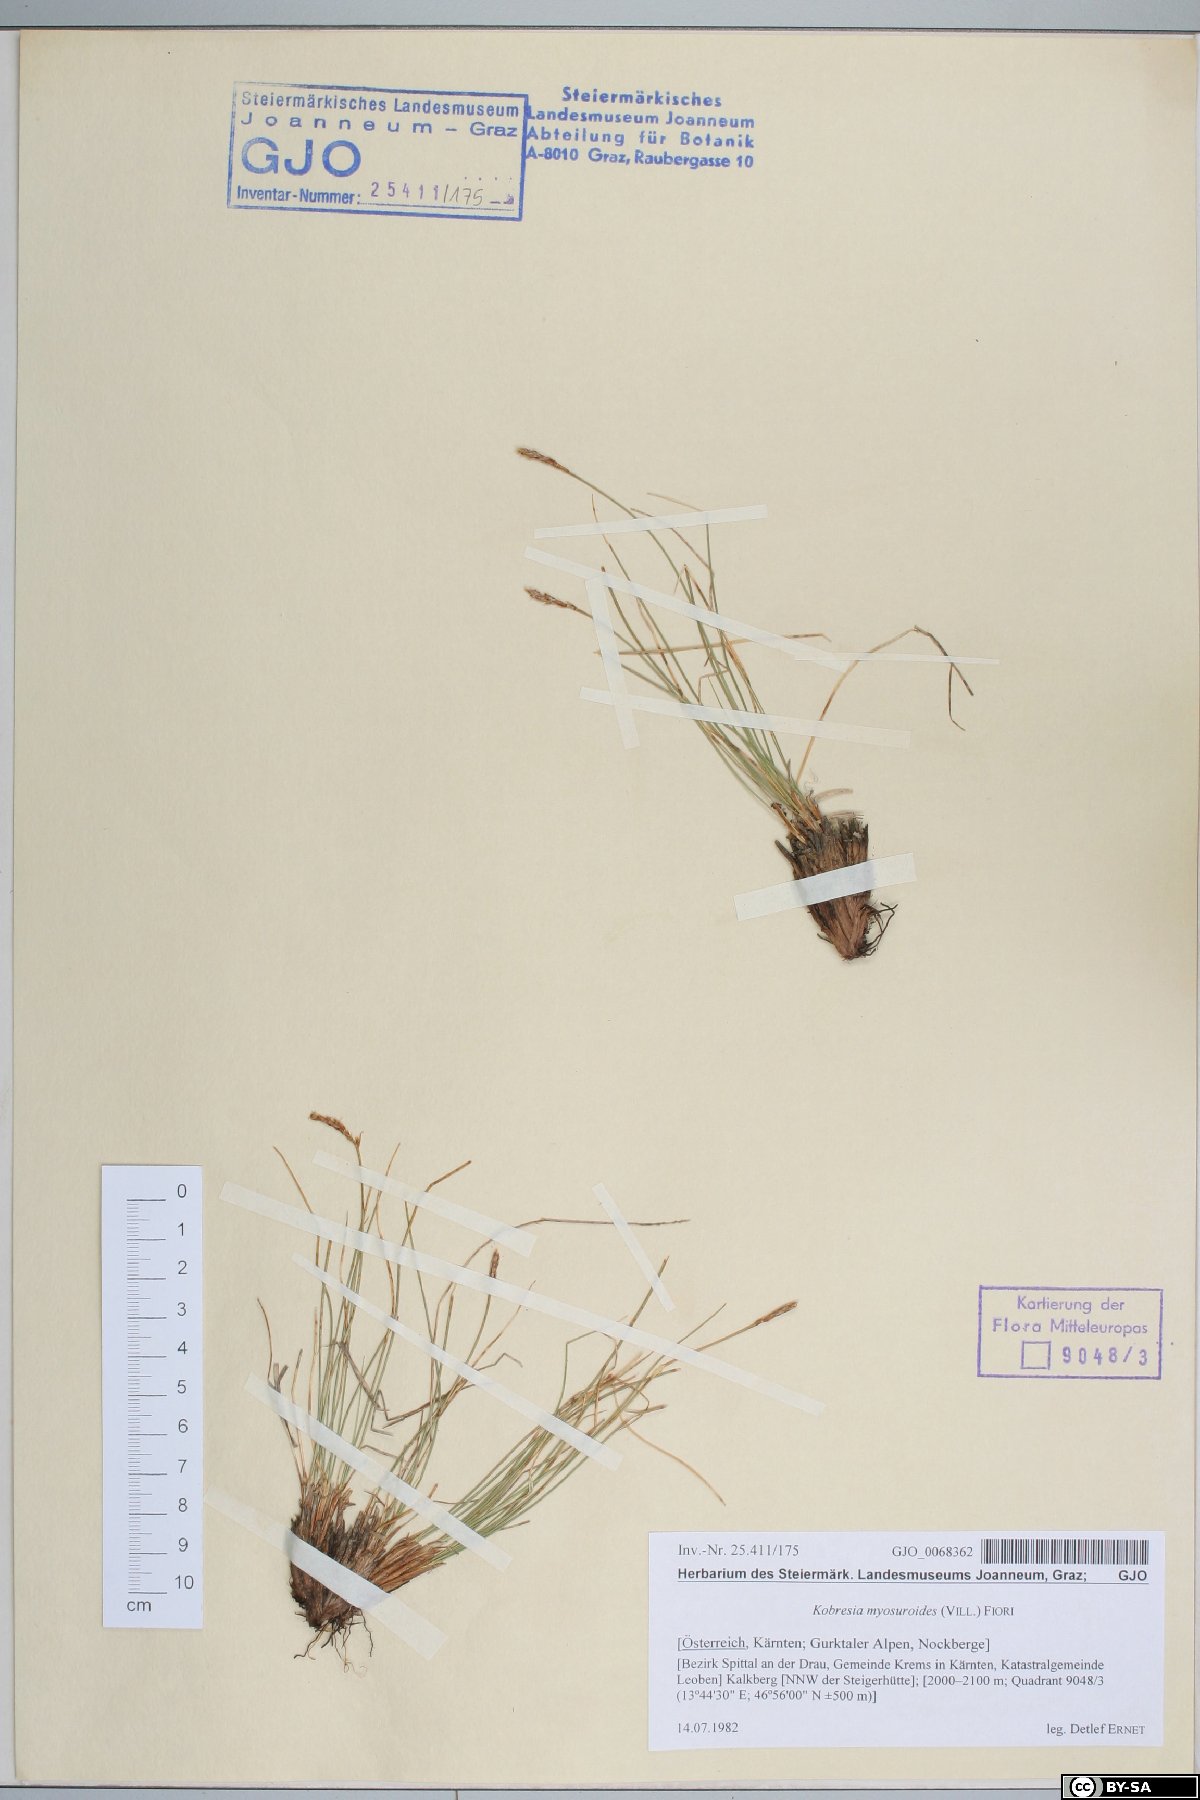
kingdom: Plantae
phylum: Tracheophyta
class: Liliopsida
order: Poales
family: Cyperaceae
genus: Carex
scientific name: Carex myosuroides
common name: Bellard's bog sedge
